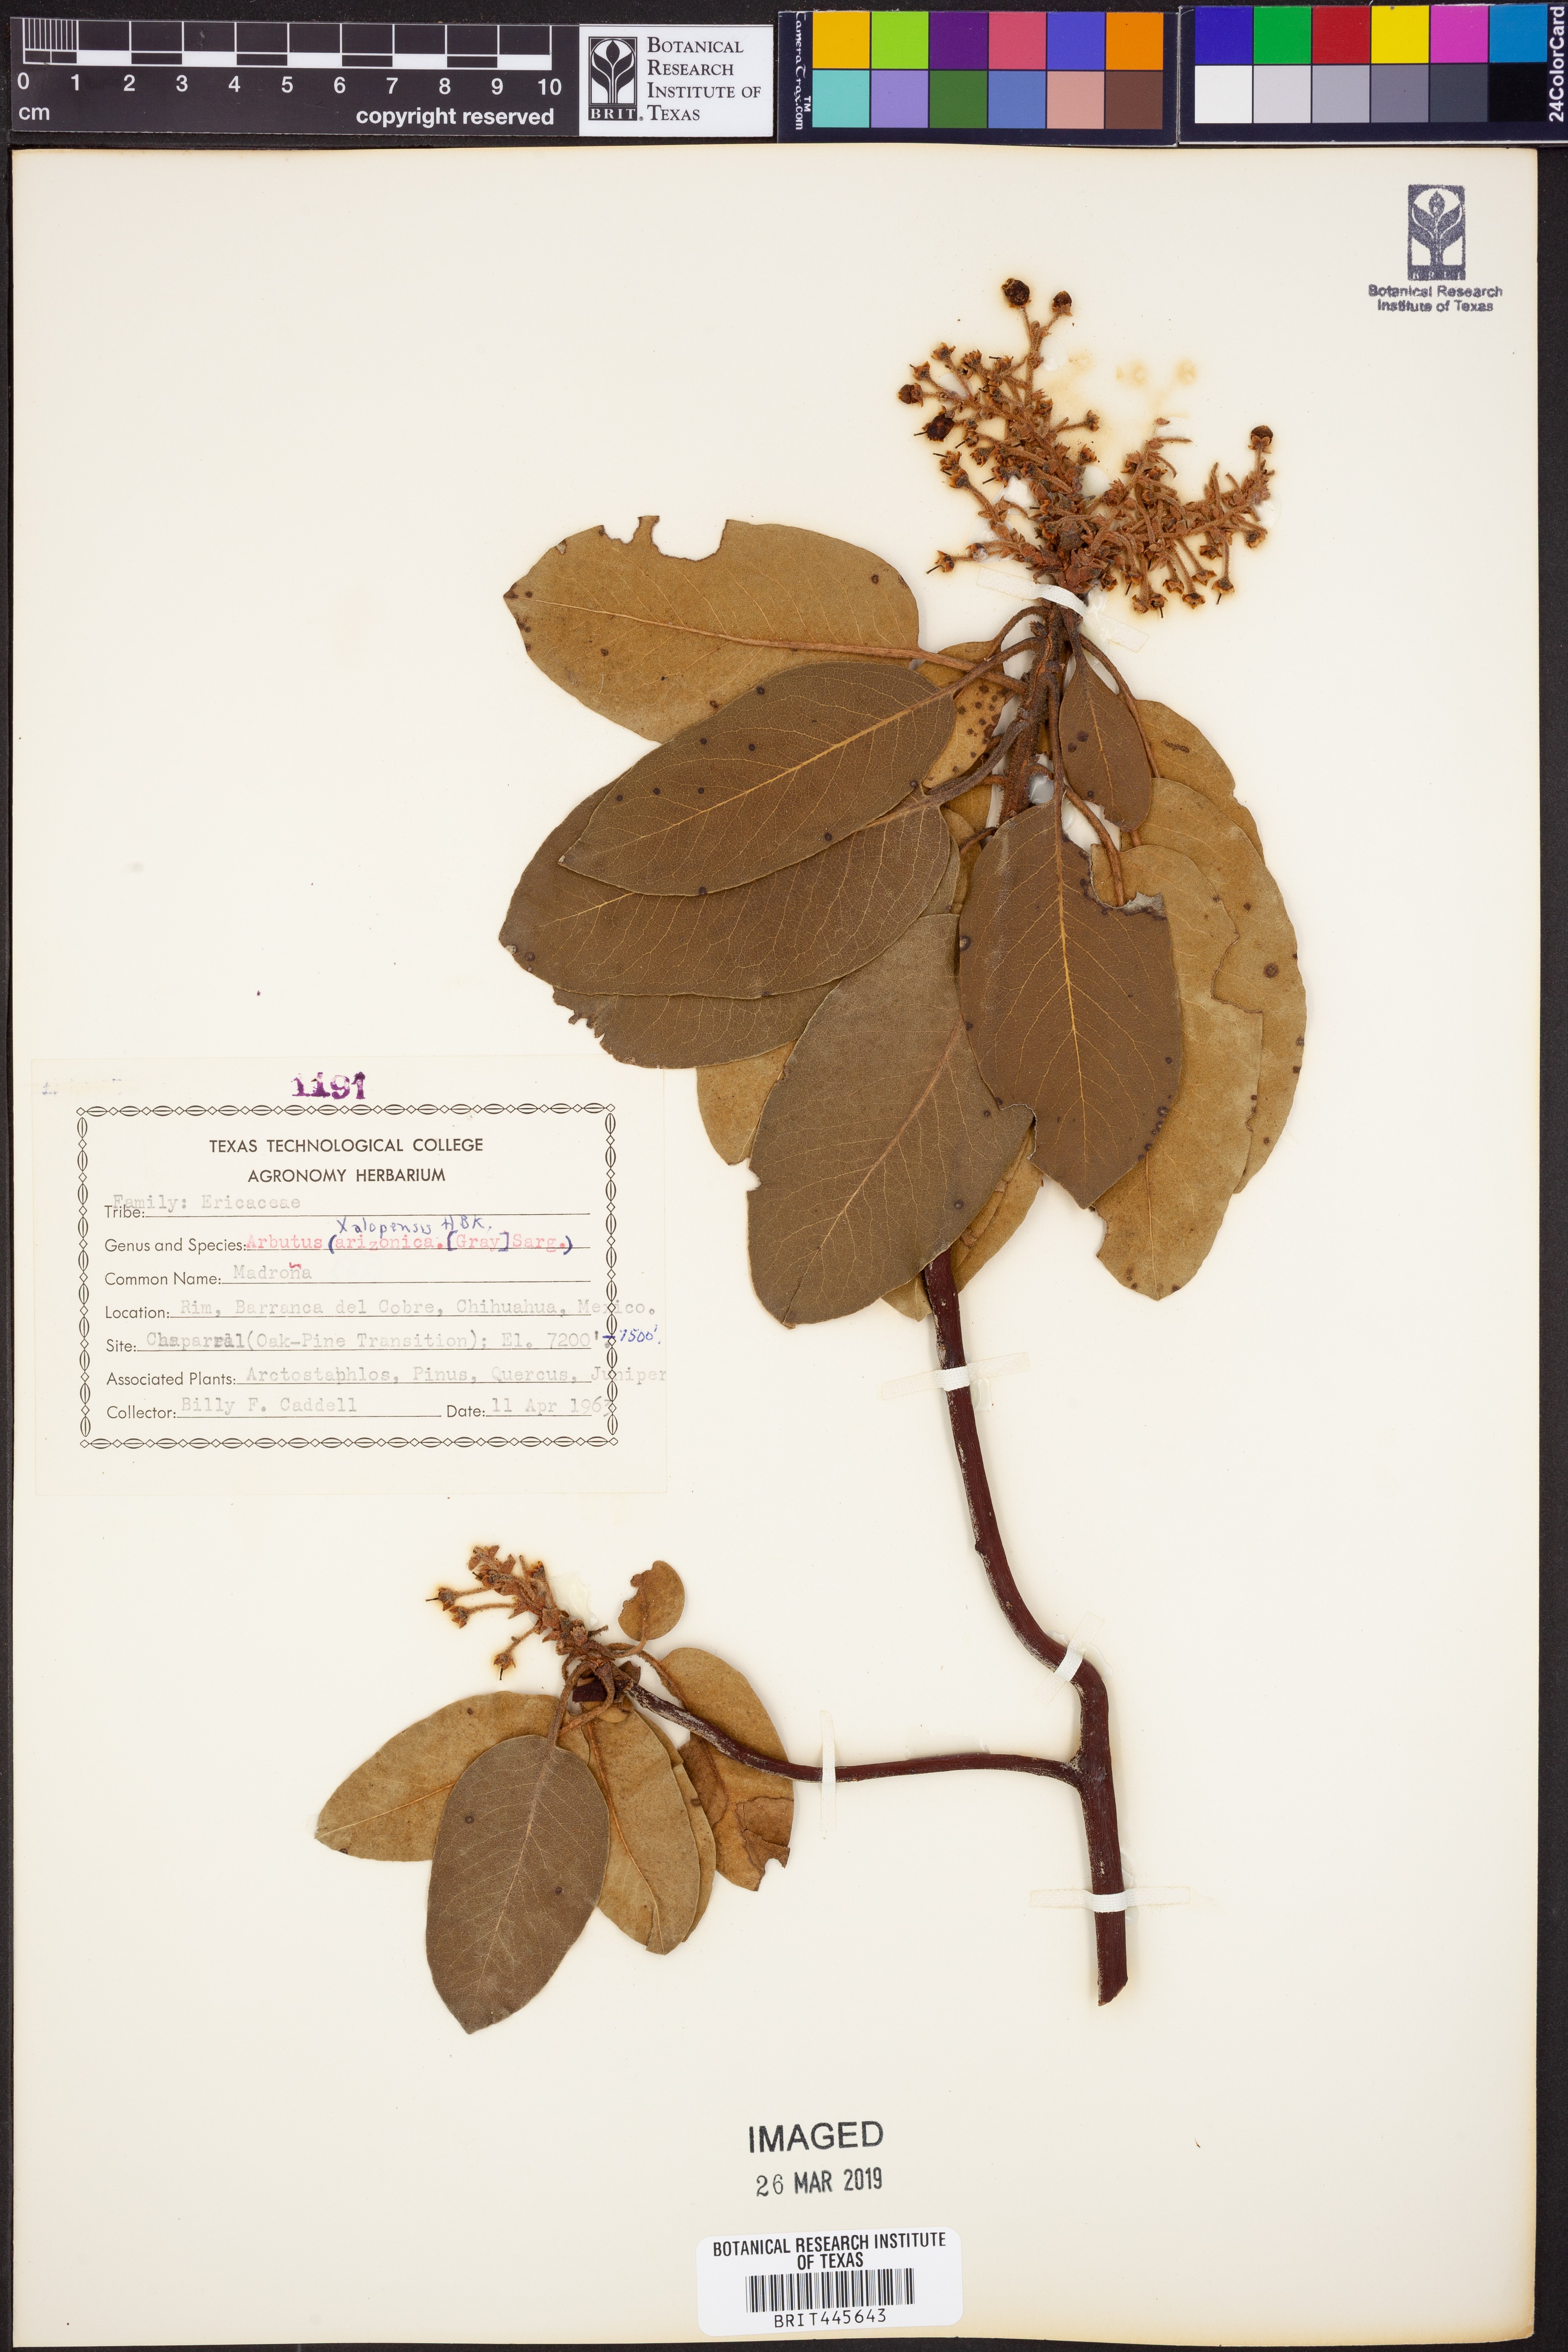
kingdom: Plantae
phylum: Tracheophyta
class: Magnoliopsida
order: Ericales
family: Ericaceae
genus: Arbutus
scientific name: Arbutus xalapensis
